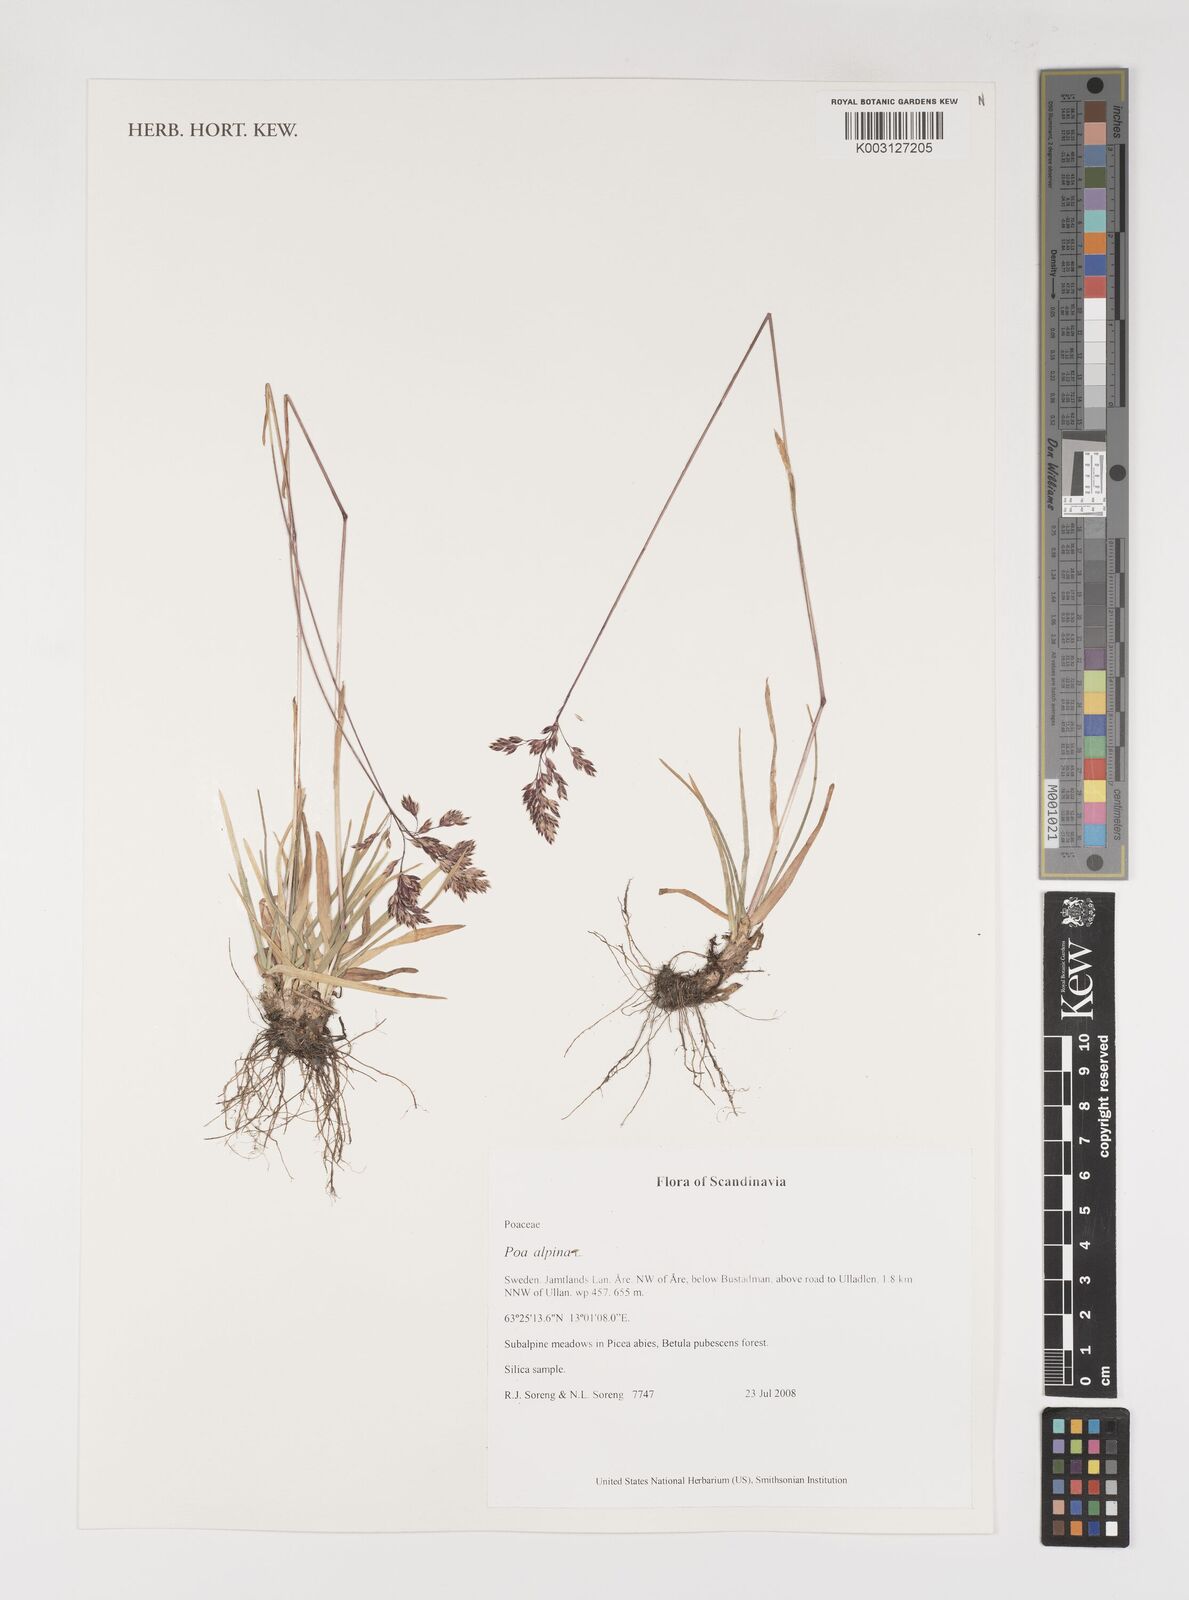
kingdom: Plantae
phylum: Tracheophyta
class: Liliopsida
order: Poales
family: Poaceae
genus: Poa
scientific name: Poa alpina
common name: Alpine bluegrass
